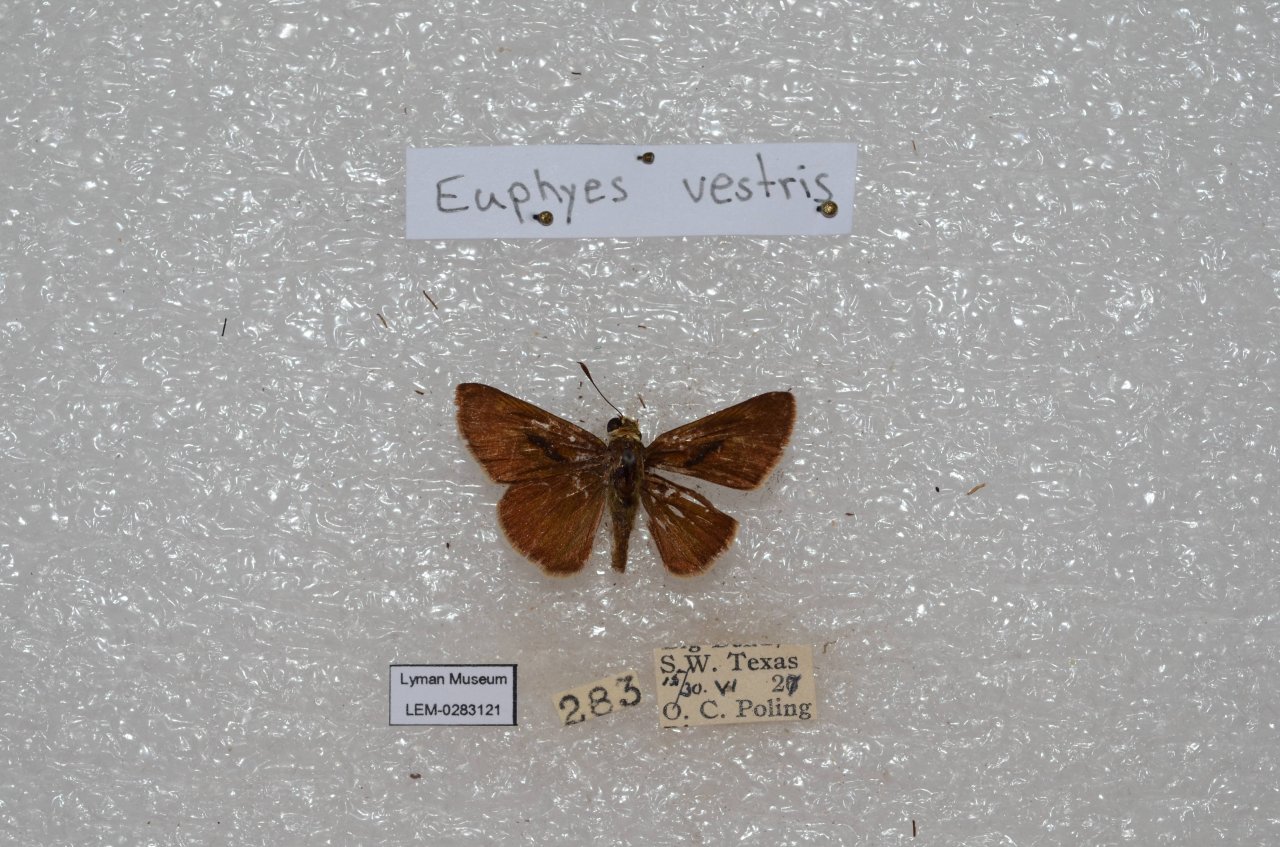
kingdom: Animalia
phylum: Arthropoda
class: Insecta
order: Lepidoptera
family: Hesperiidae
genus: Euphyes
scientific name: Euphyes vestris
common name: Dun Skipper
